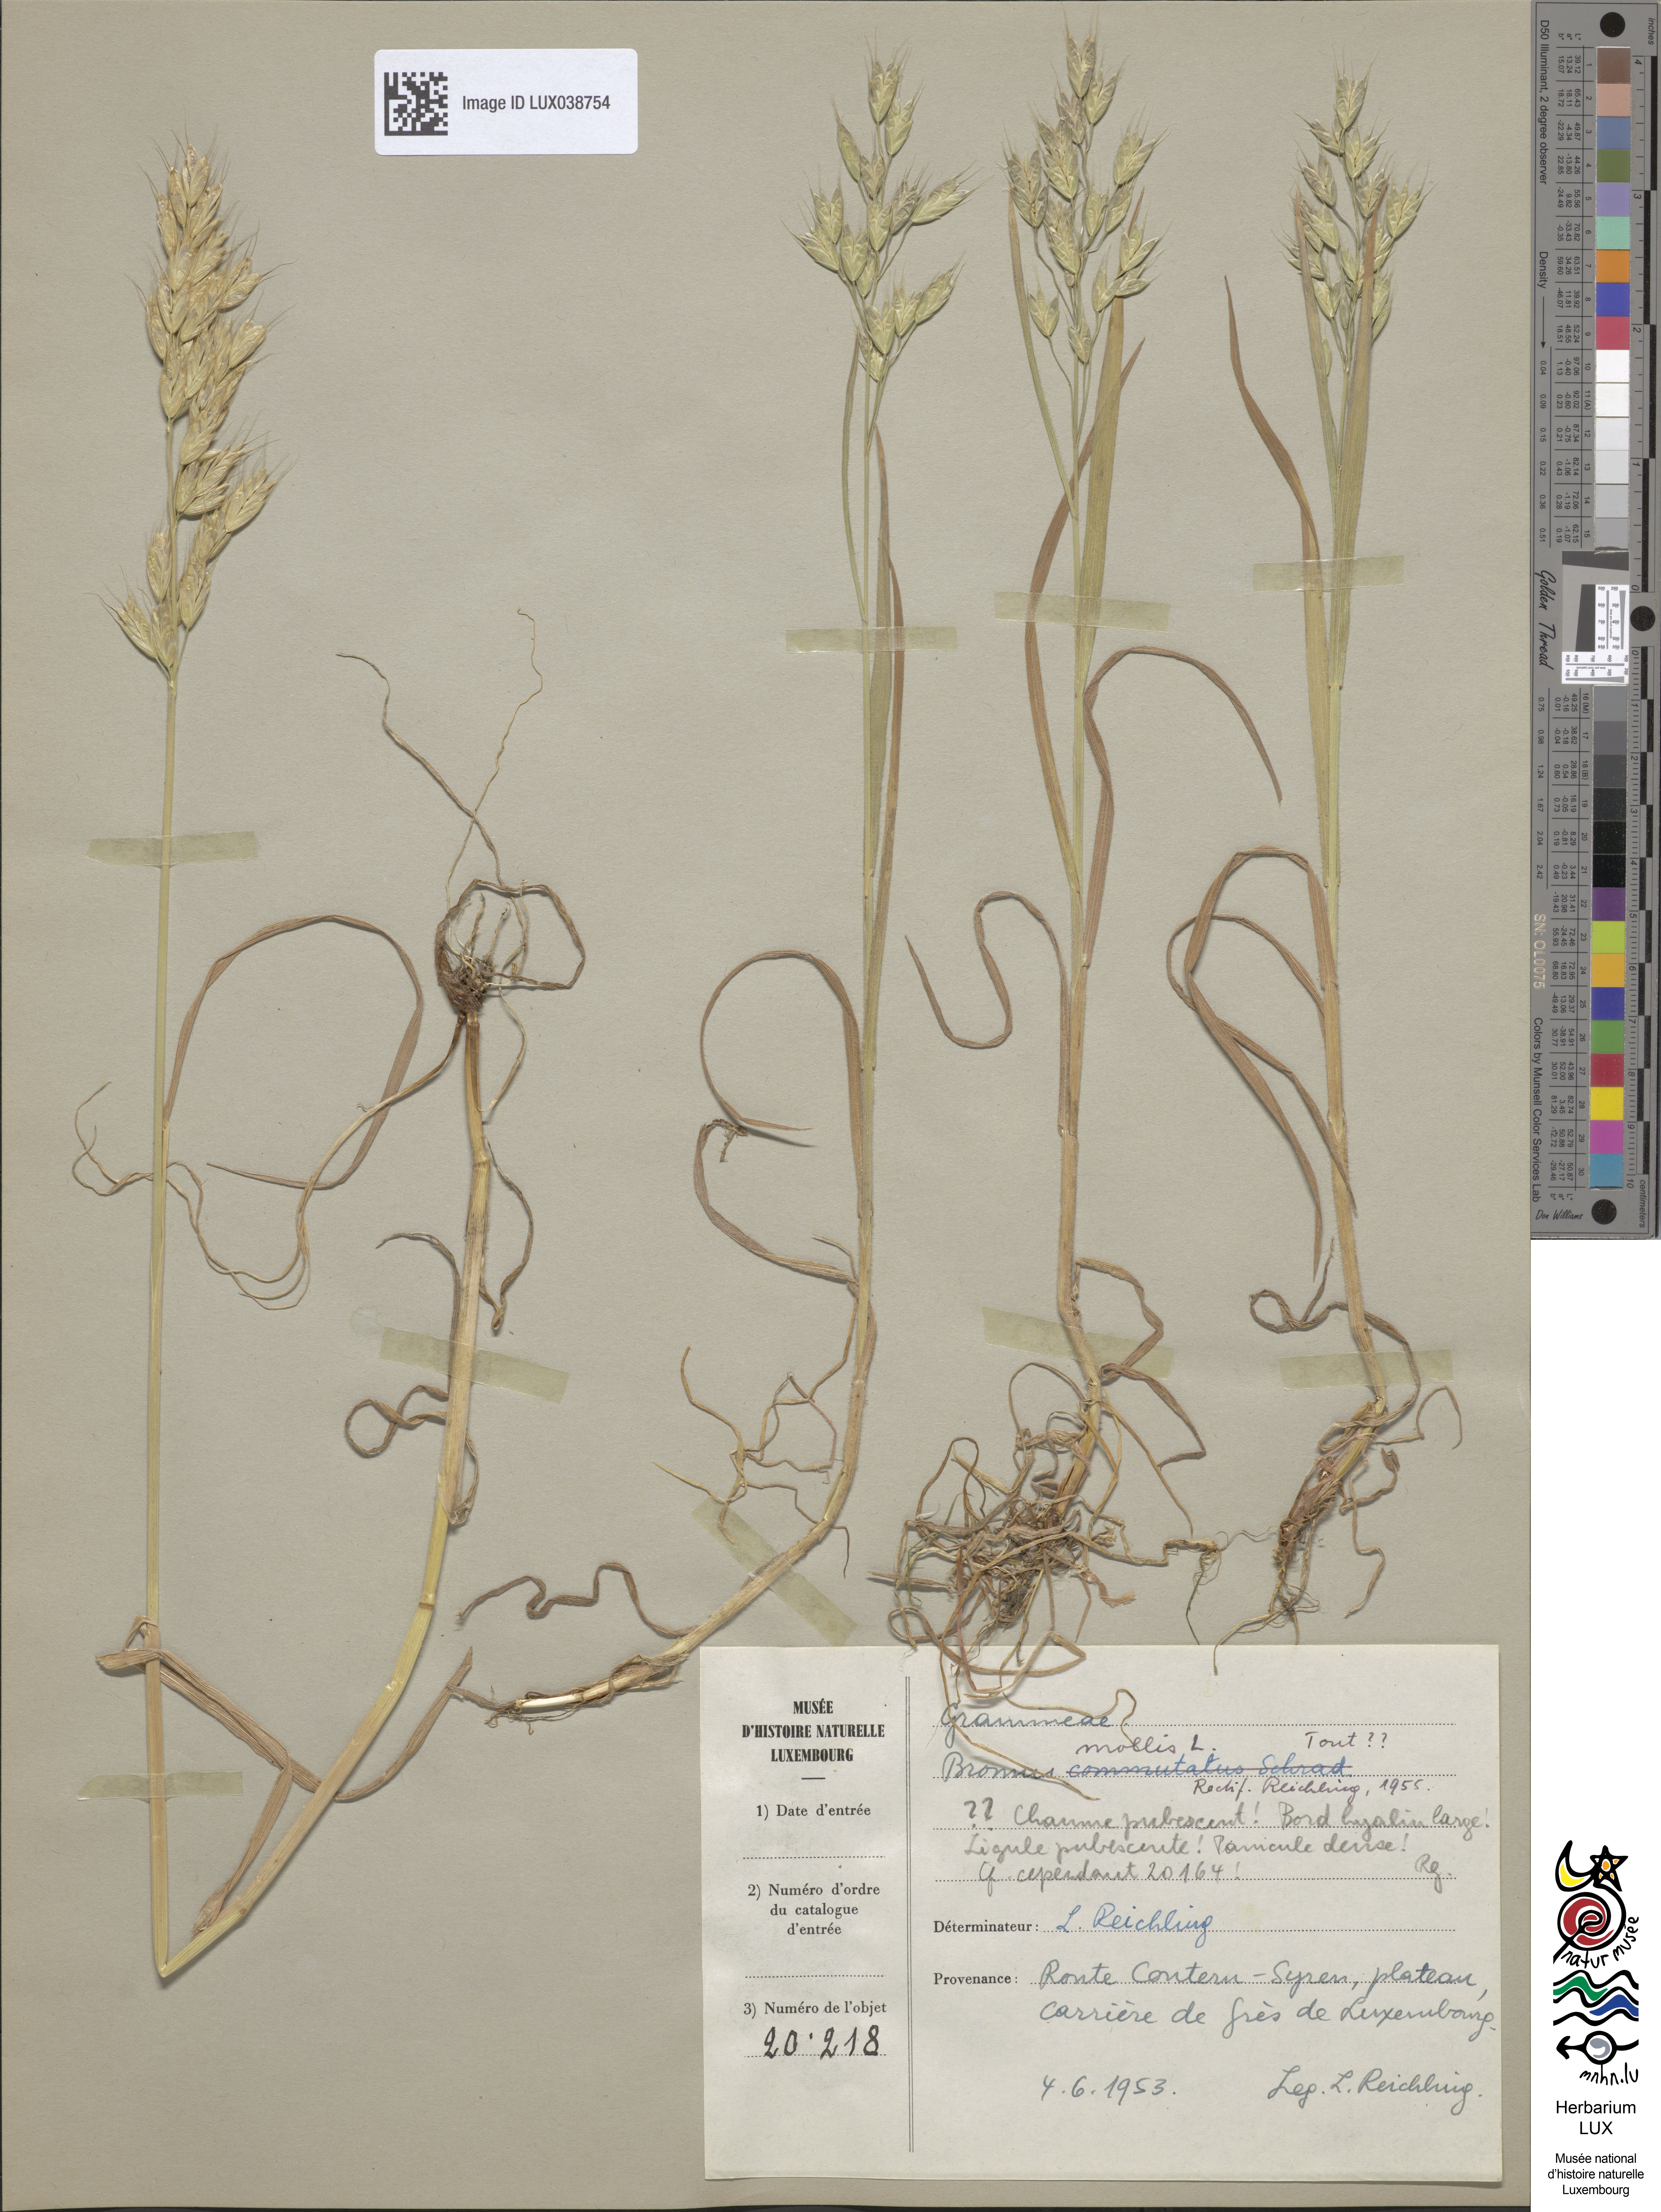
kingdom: Plantae
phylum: Tracheophyta
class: Liliopsida
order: Poales
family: Poaceae
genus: Bromus
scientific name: Bromus hordeaceus
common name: Soft brome
